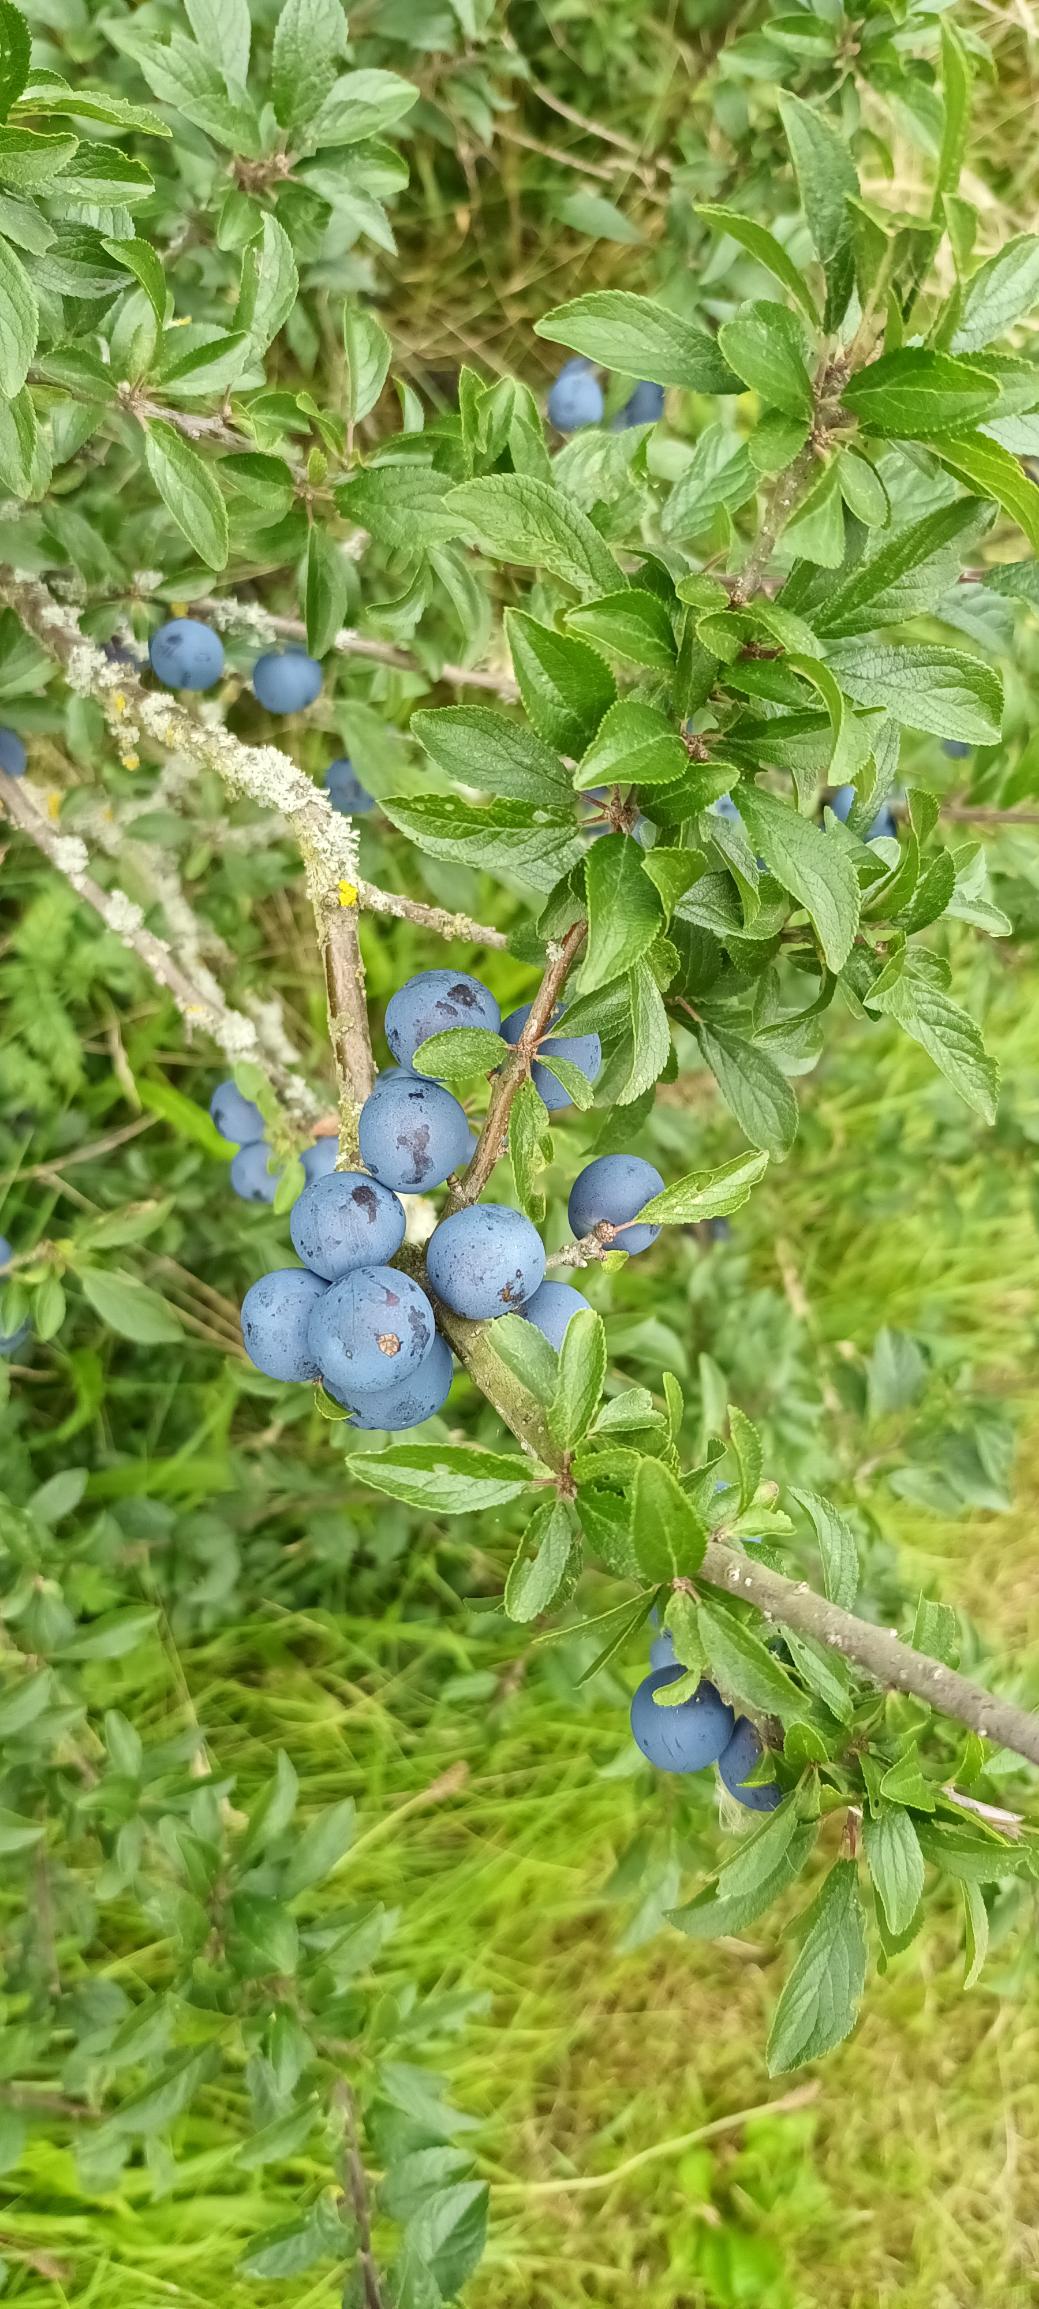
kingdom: Plantae
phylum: Tracheophyta
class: Magnoliopsida
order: Rosales
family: Rosaceae
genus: Prunus
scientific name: Prunus spinosa
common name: Slåen
